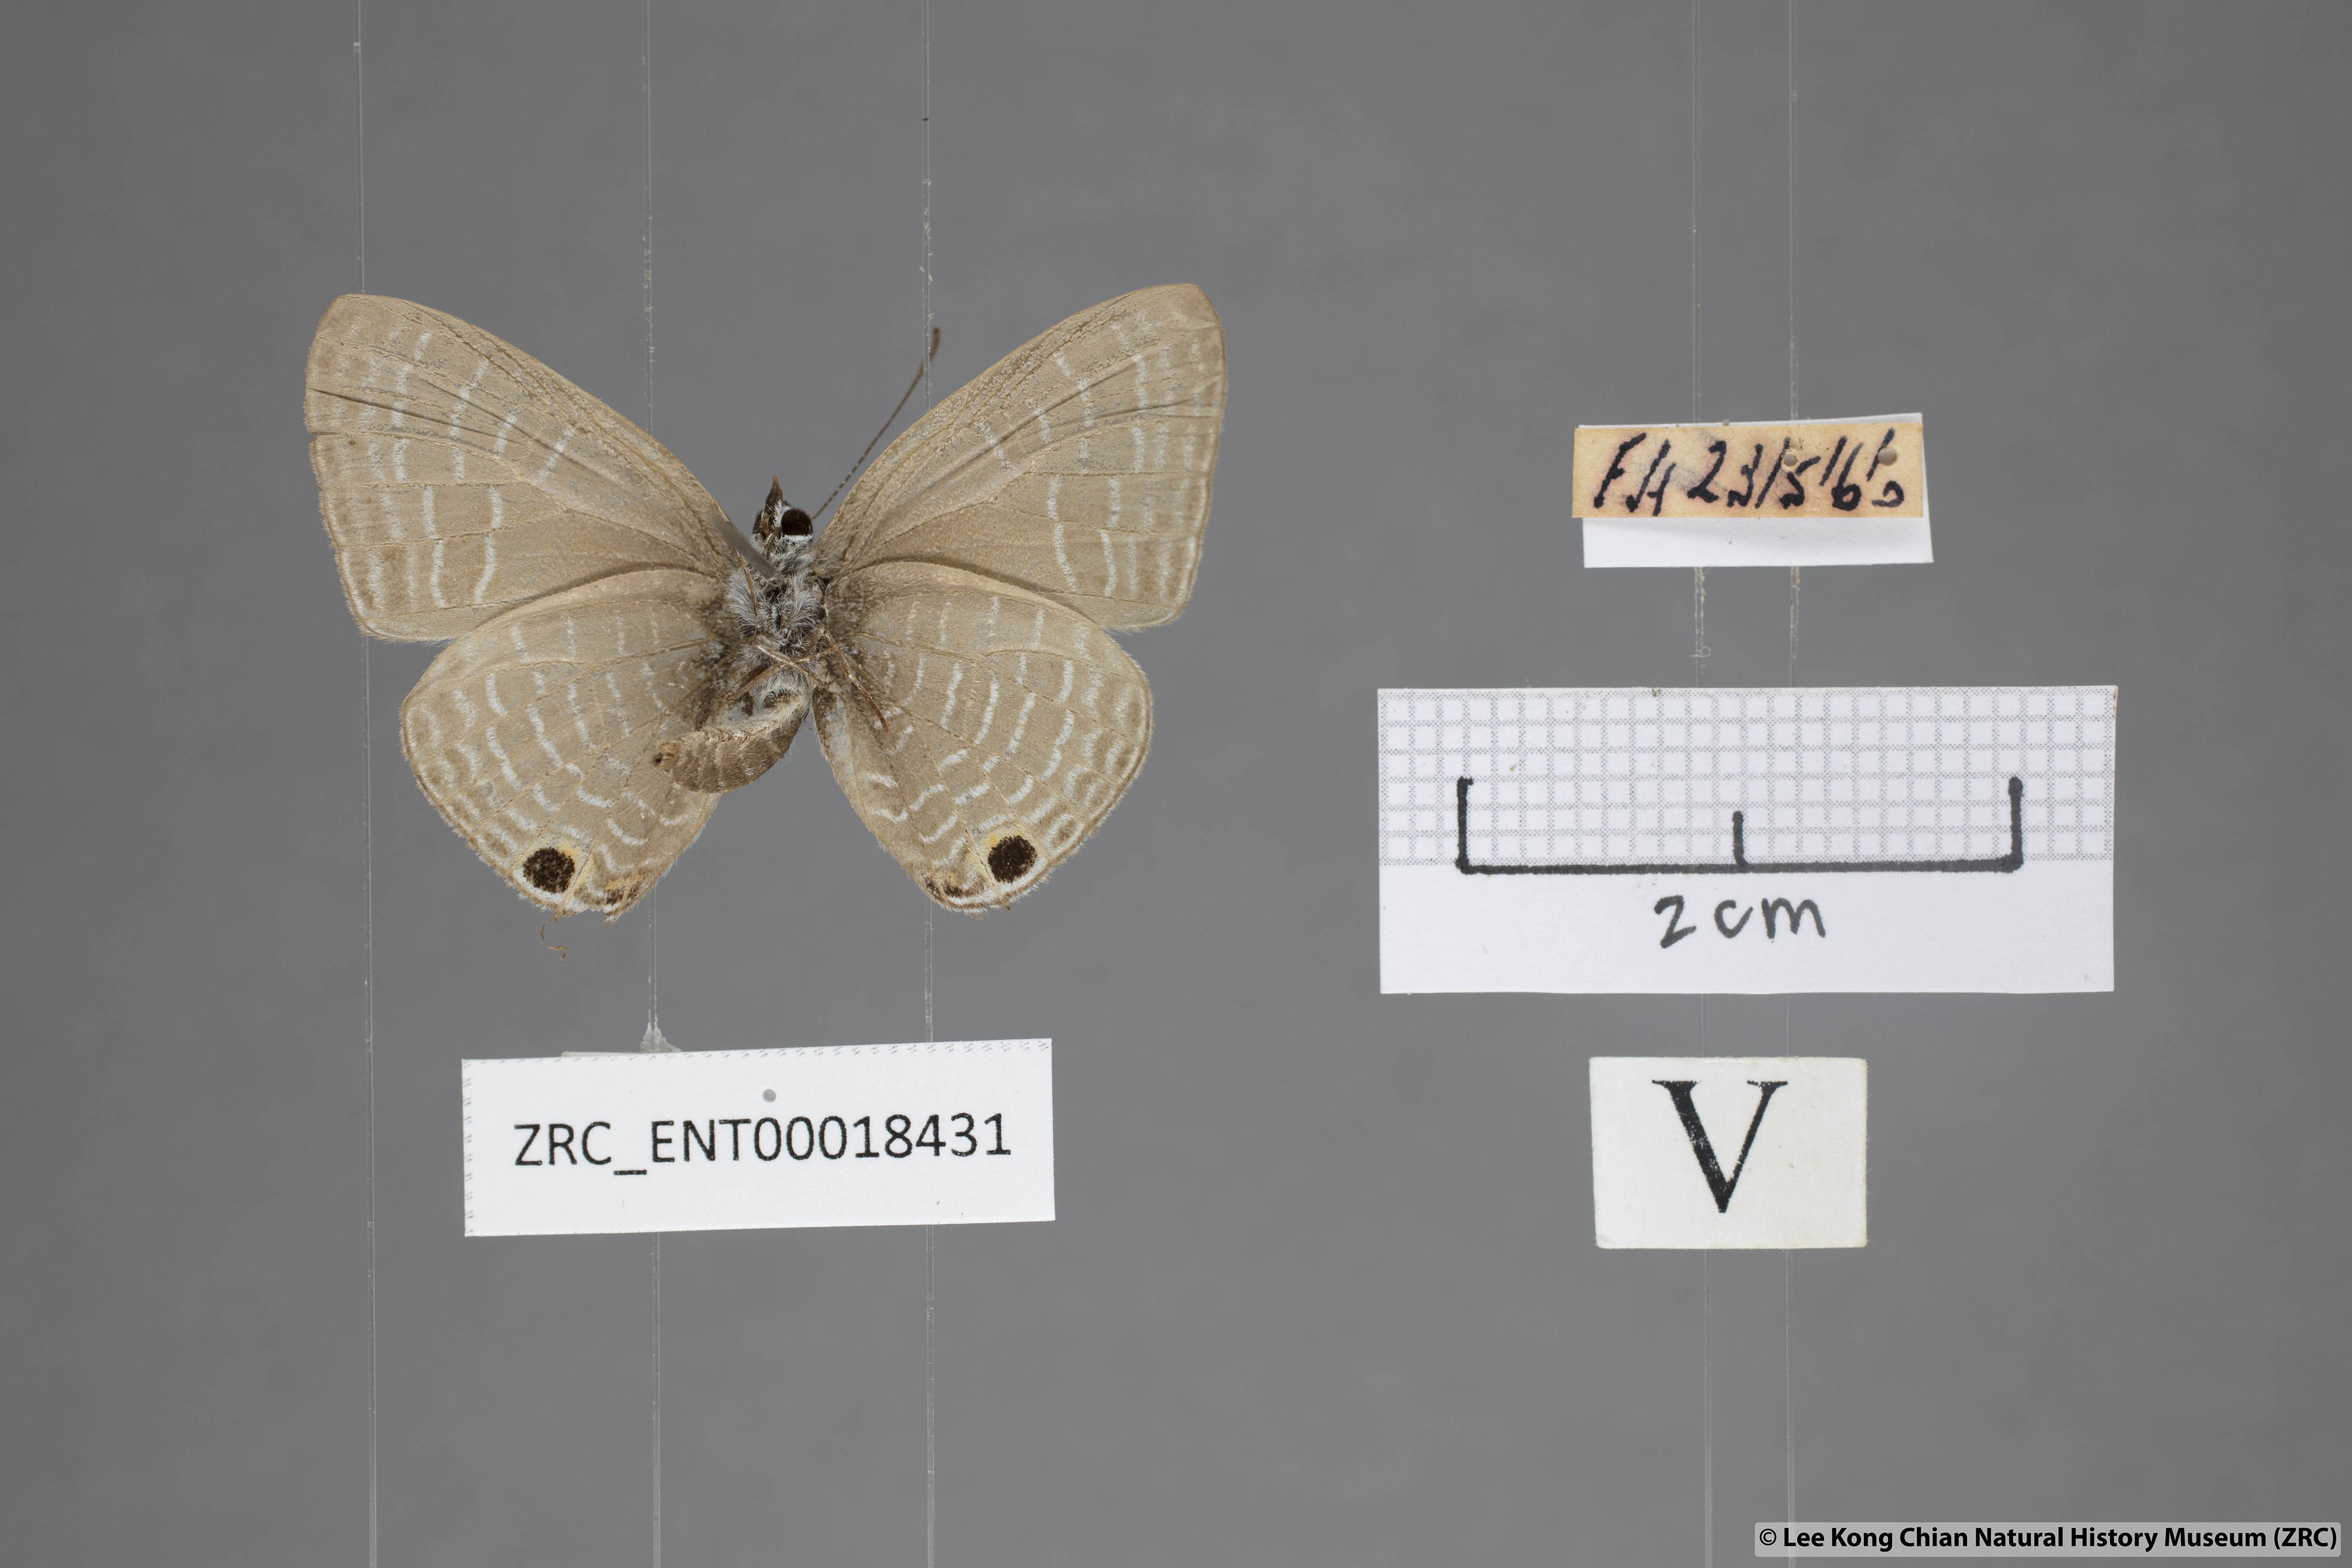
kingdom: Animalia
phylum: Arthropoda
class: Insecta
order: Lepidoptera
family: Lycaenidae
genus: Nacaduba
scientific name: Nacaduba pendleburyi
